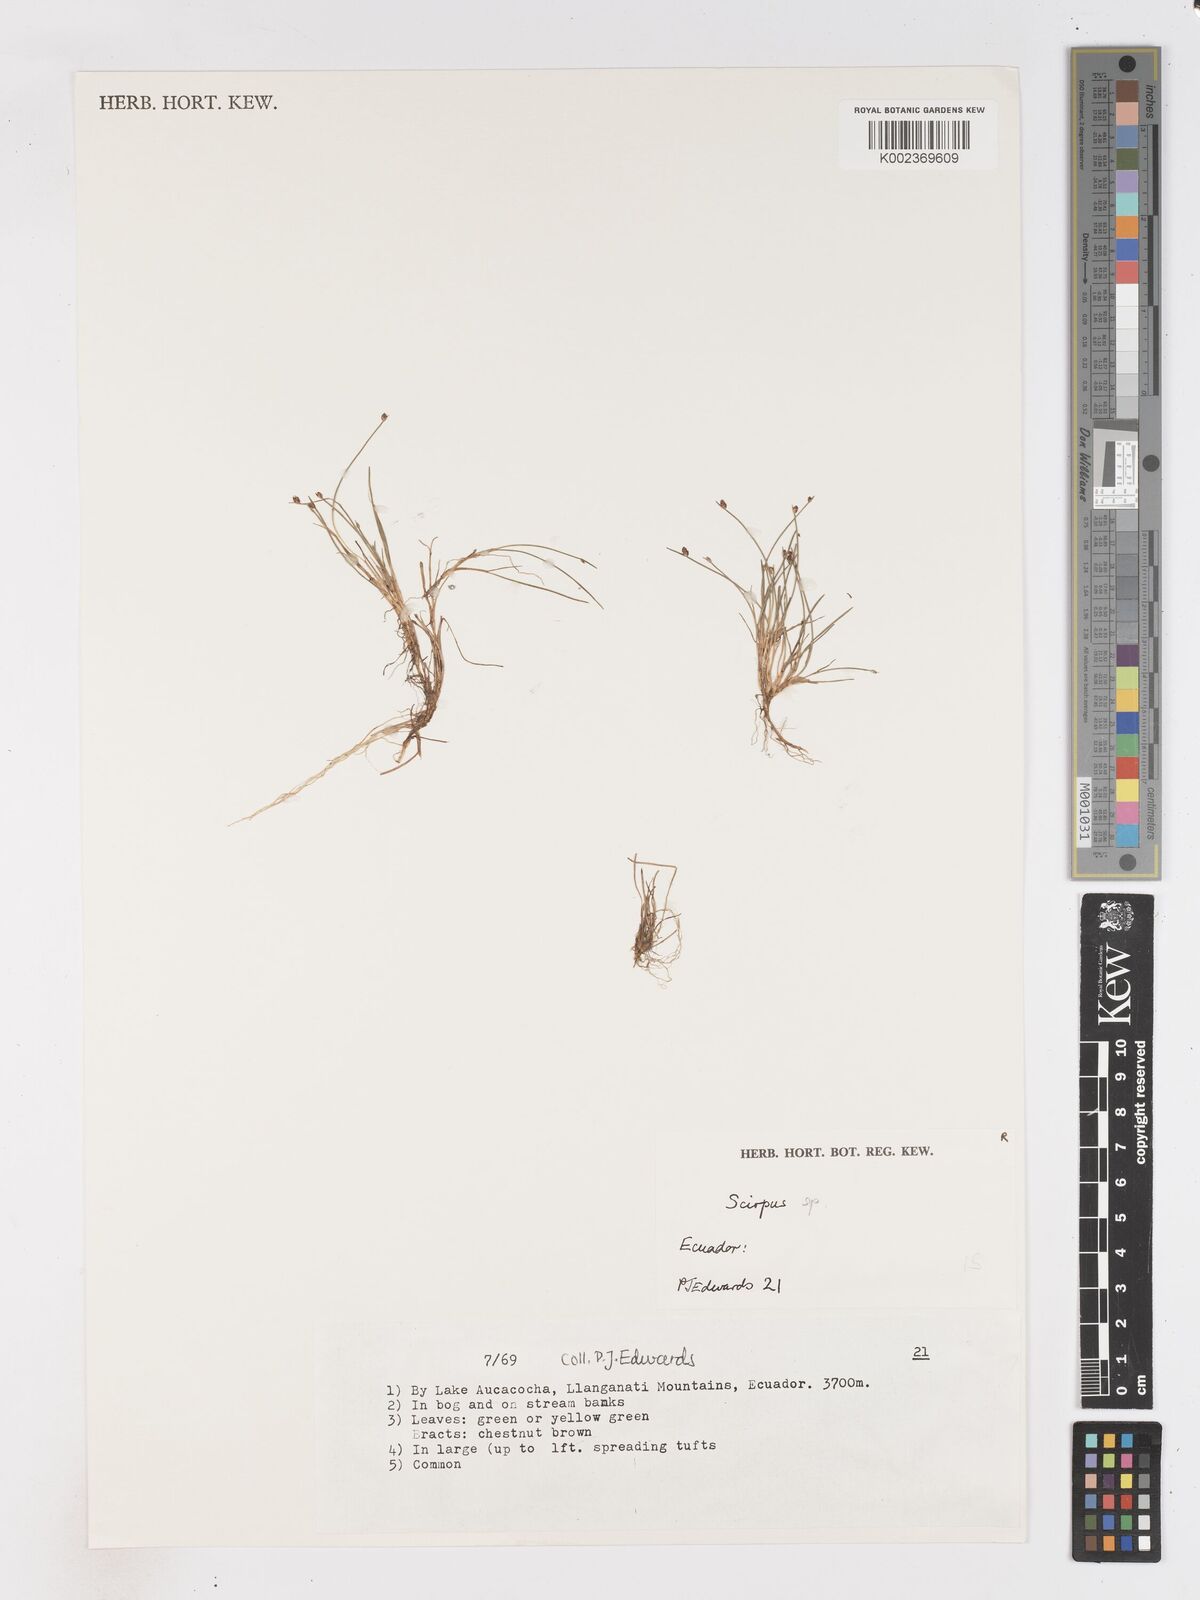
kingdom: Plantae
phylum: Tracheophyta
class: Liliopsida
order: Poales
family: Cyperaceae
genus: Isolepis
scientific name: Isolepis cernua
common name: Slender club-rush
